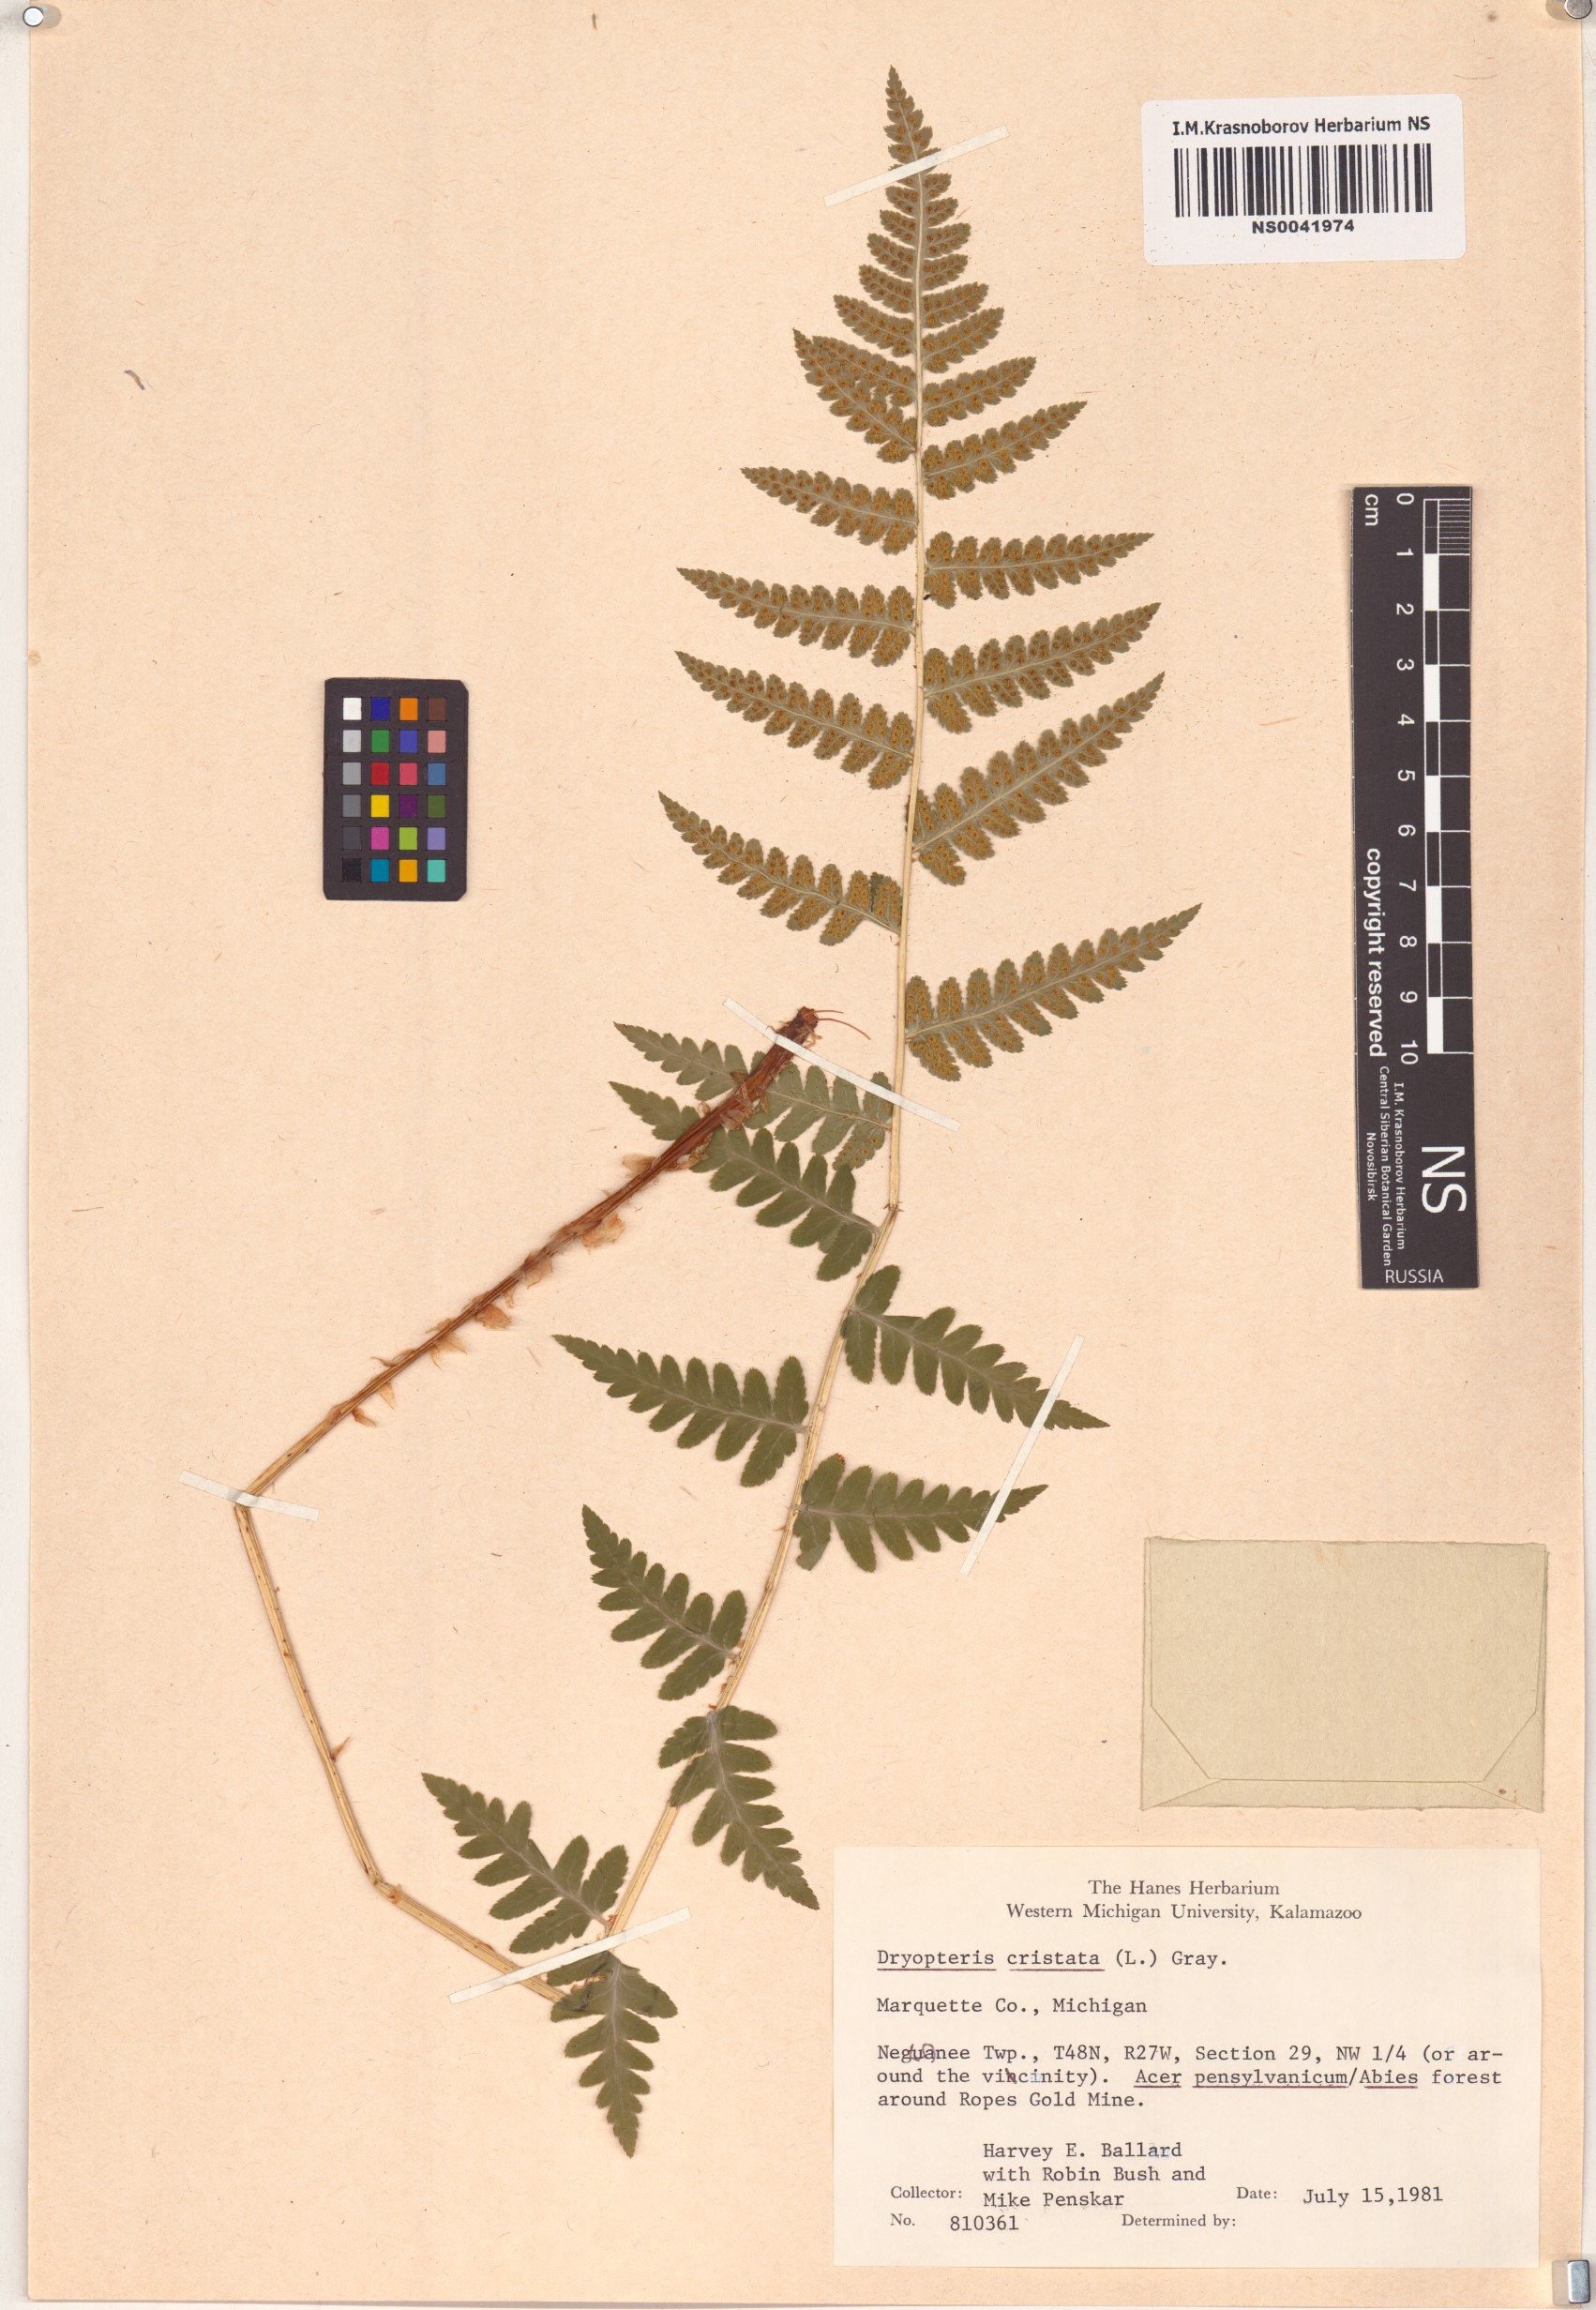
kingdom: Plantae
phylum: Tracheophyta
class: Polypodiopsida
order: Polypodiales
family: Dryopteridaceae
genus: Dryopteris
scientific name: Dryopteris cristata
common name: Crested wood fern
